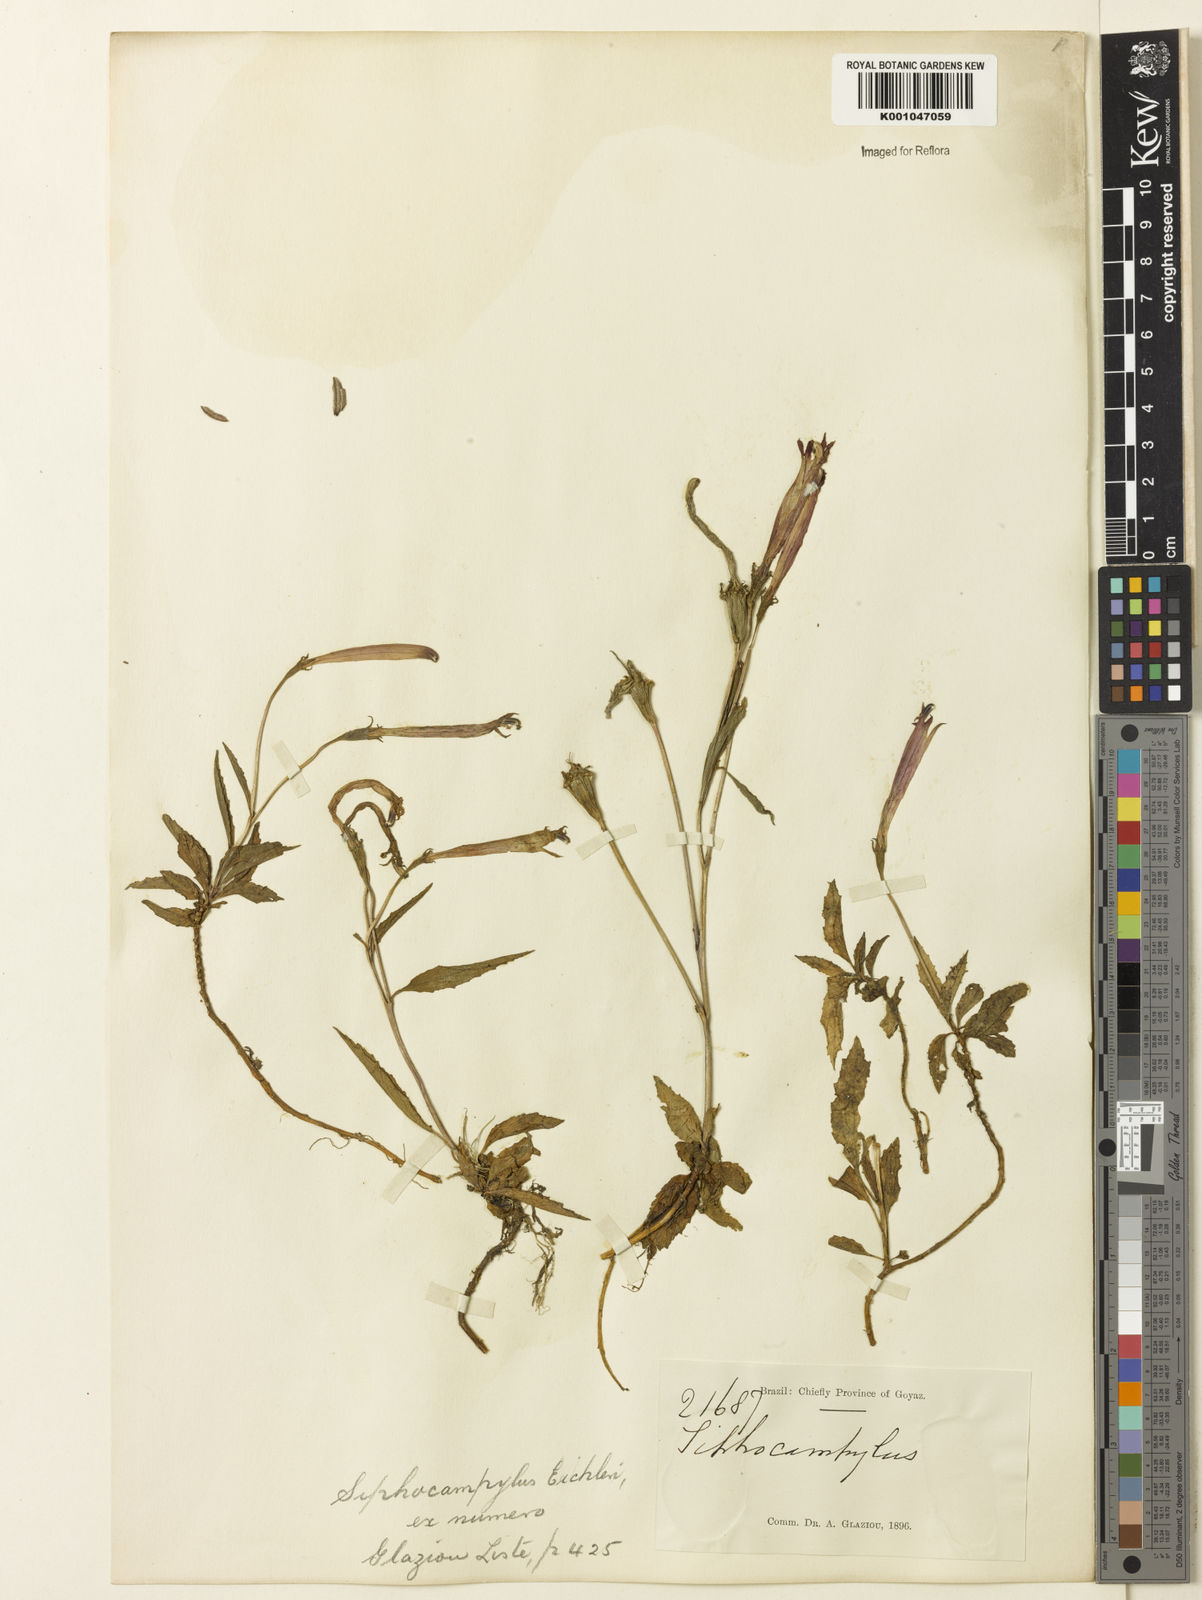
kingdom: Plantae
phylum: Tracheophyta
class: Magnoliopsida
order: Asterales
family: Campanulaceae
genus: Siphocampylus
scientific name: Siphocampylus eichleri
